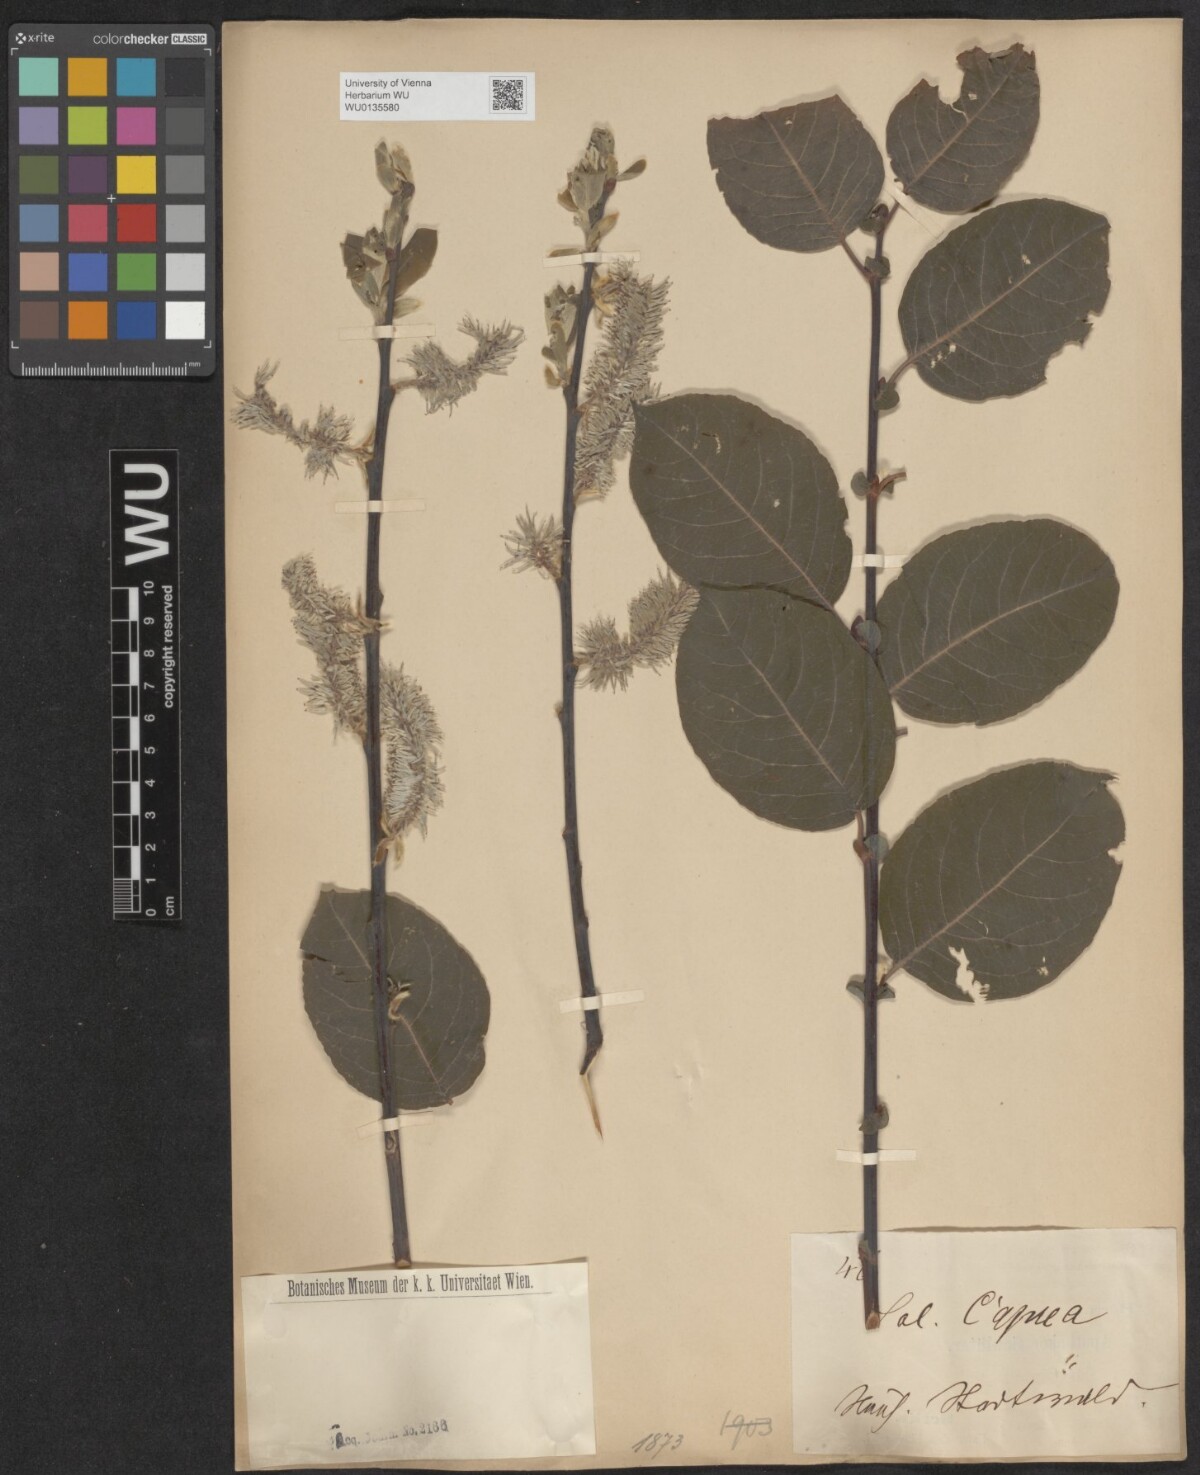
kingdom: Plantae
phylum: Tracheophyta
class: Magnoliopsida
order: Malpighiales
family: Salicaceae
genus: Salix
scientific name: Salix caprea
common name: Goat willow
